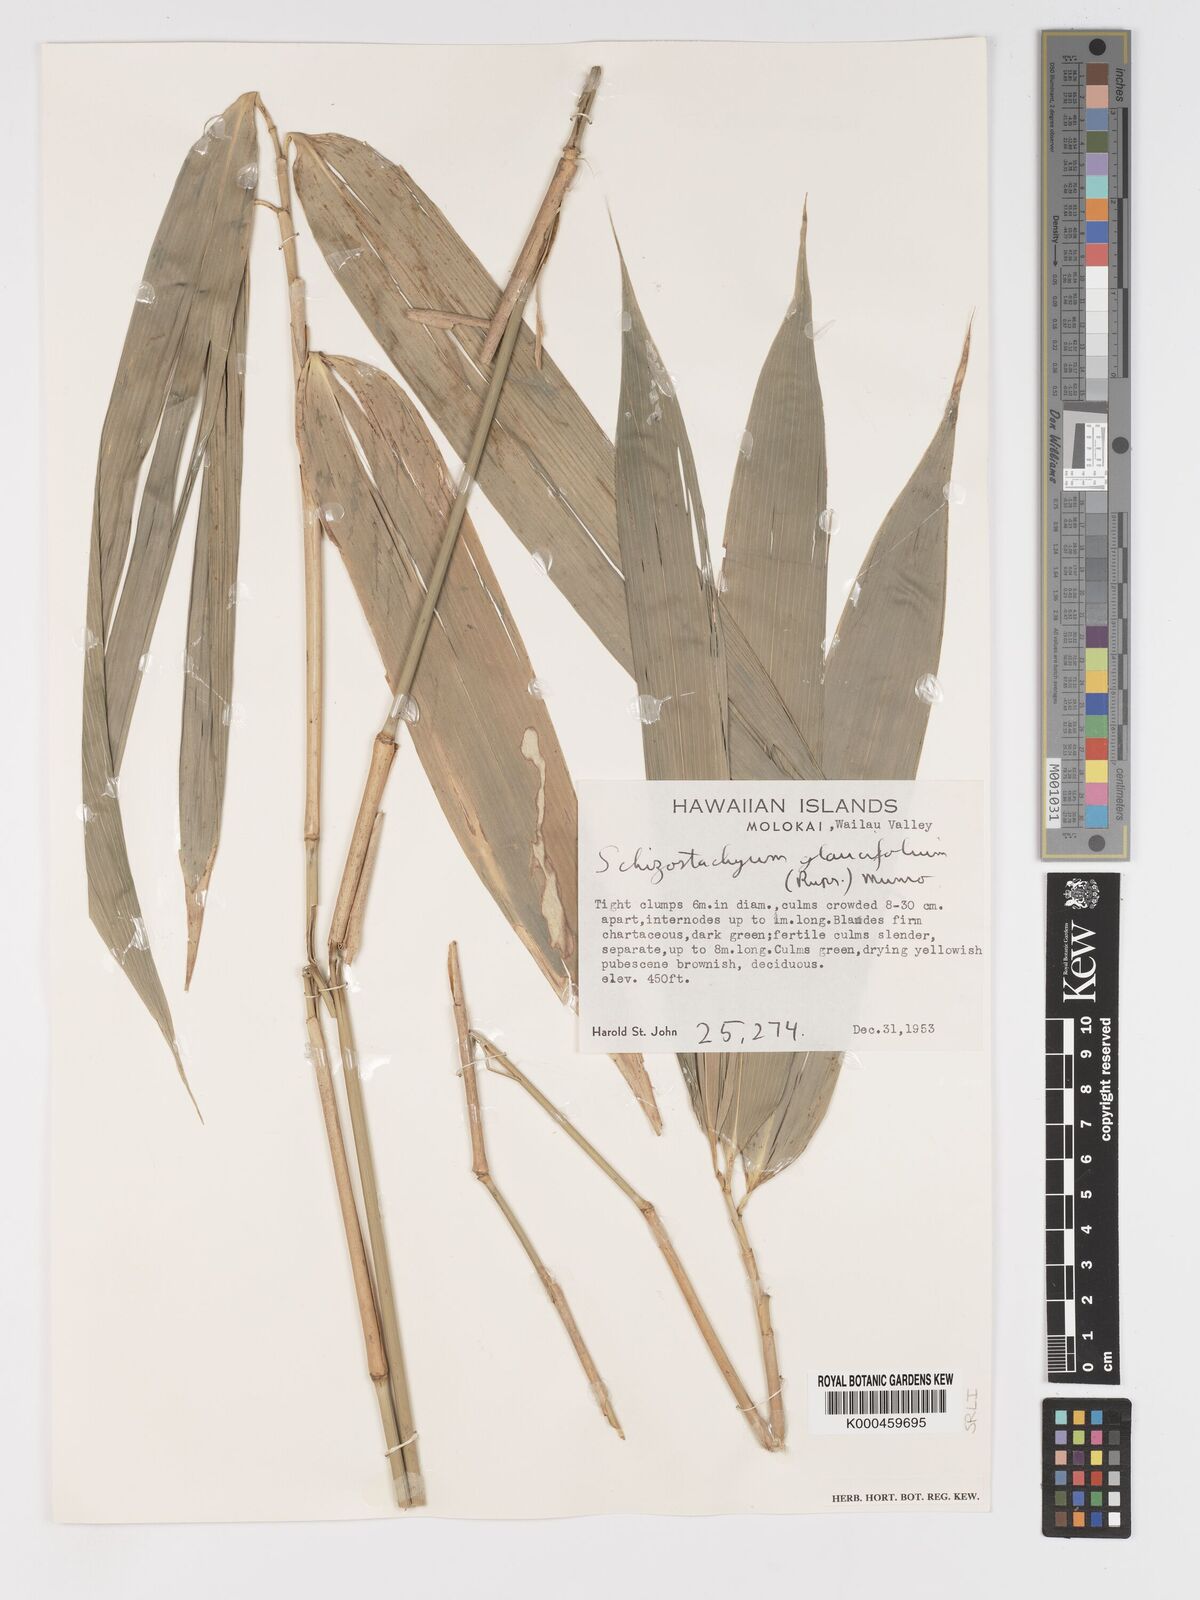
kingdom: Plantae
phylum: Tracheophyta
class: Liliopsida
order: Poales
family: Poaceae
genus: Schizostachyum
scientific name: Schizostachyum glaucifolium
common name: Polynesian 'ohe
